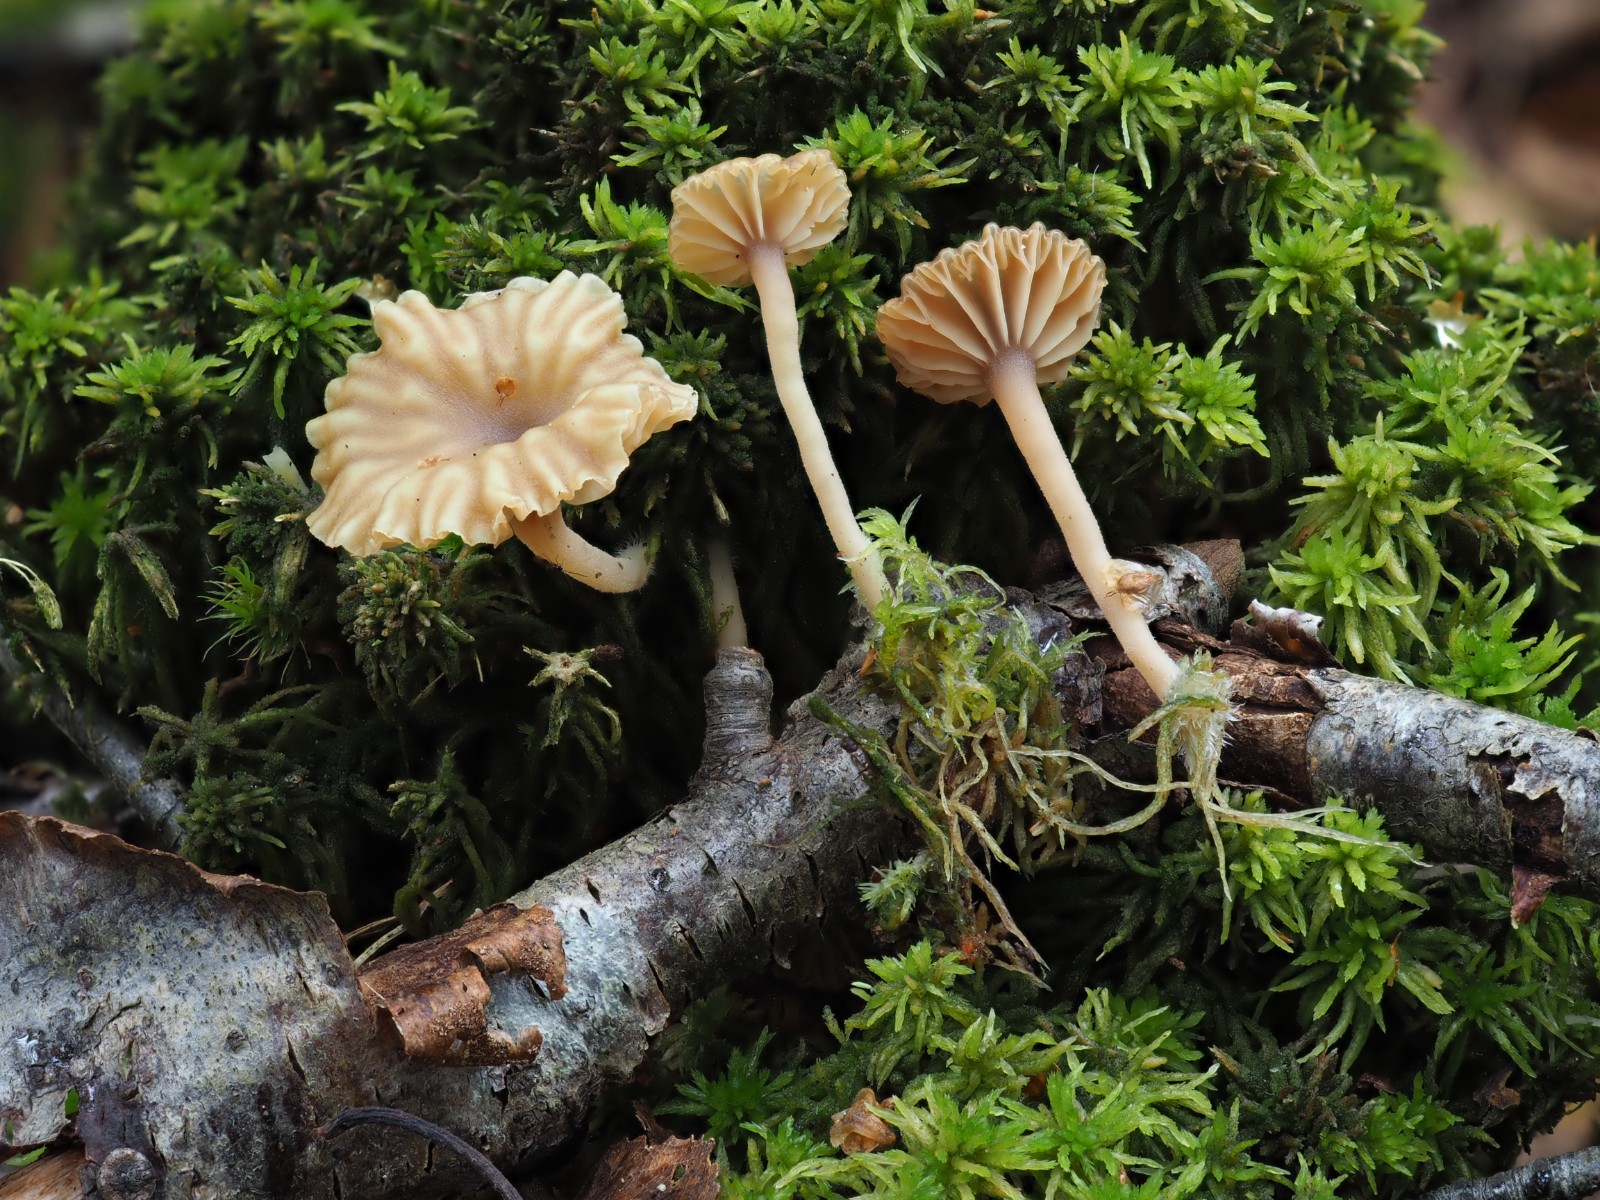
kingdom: Fungi
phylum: Basidiomycota
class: Agaricomycetes
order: Agaricales
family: Hygrophoraceae
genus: Lichenomphalia
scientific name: Lichenomphalia umbellifera
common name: tørve-lavhat
